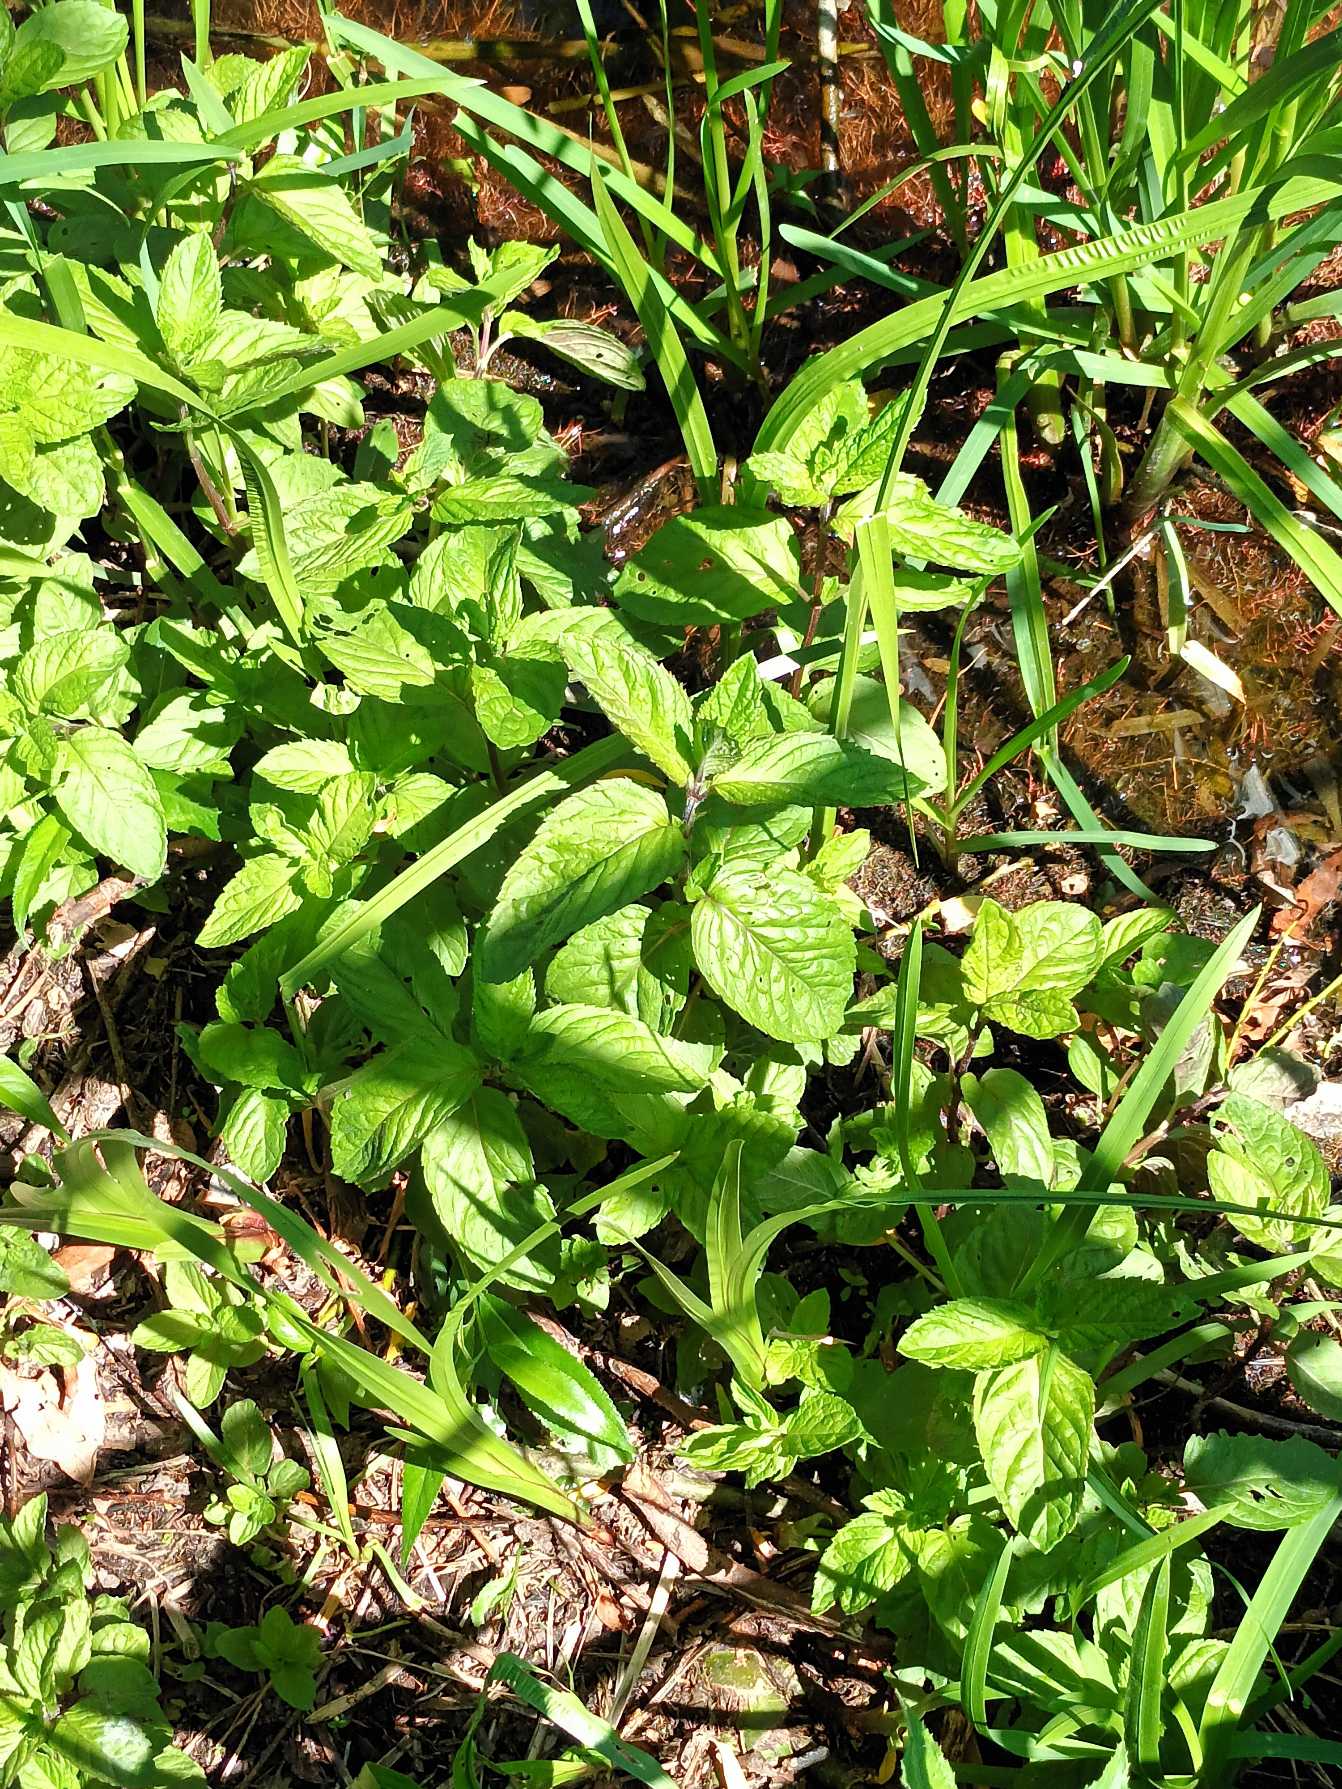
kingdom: Plantae
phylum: Tracheophyta
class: Magnoliopsida
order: Lamiales
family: Lamiaceae
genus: Mentha
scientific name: Mentha aquatica
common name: Vand-mynte
